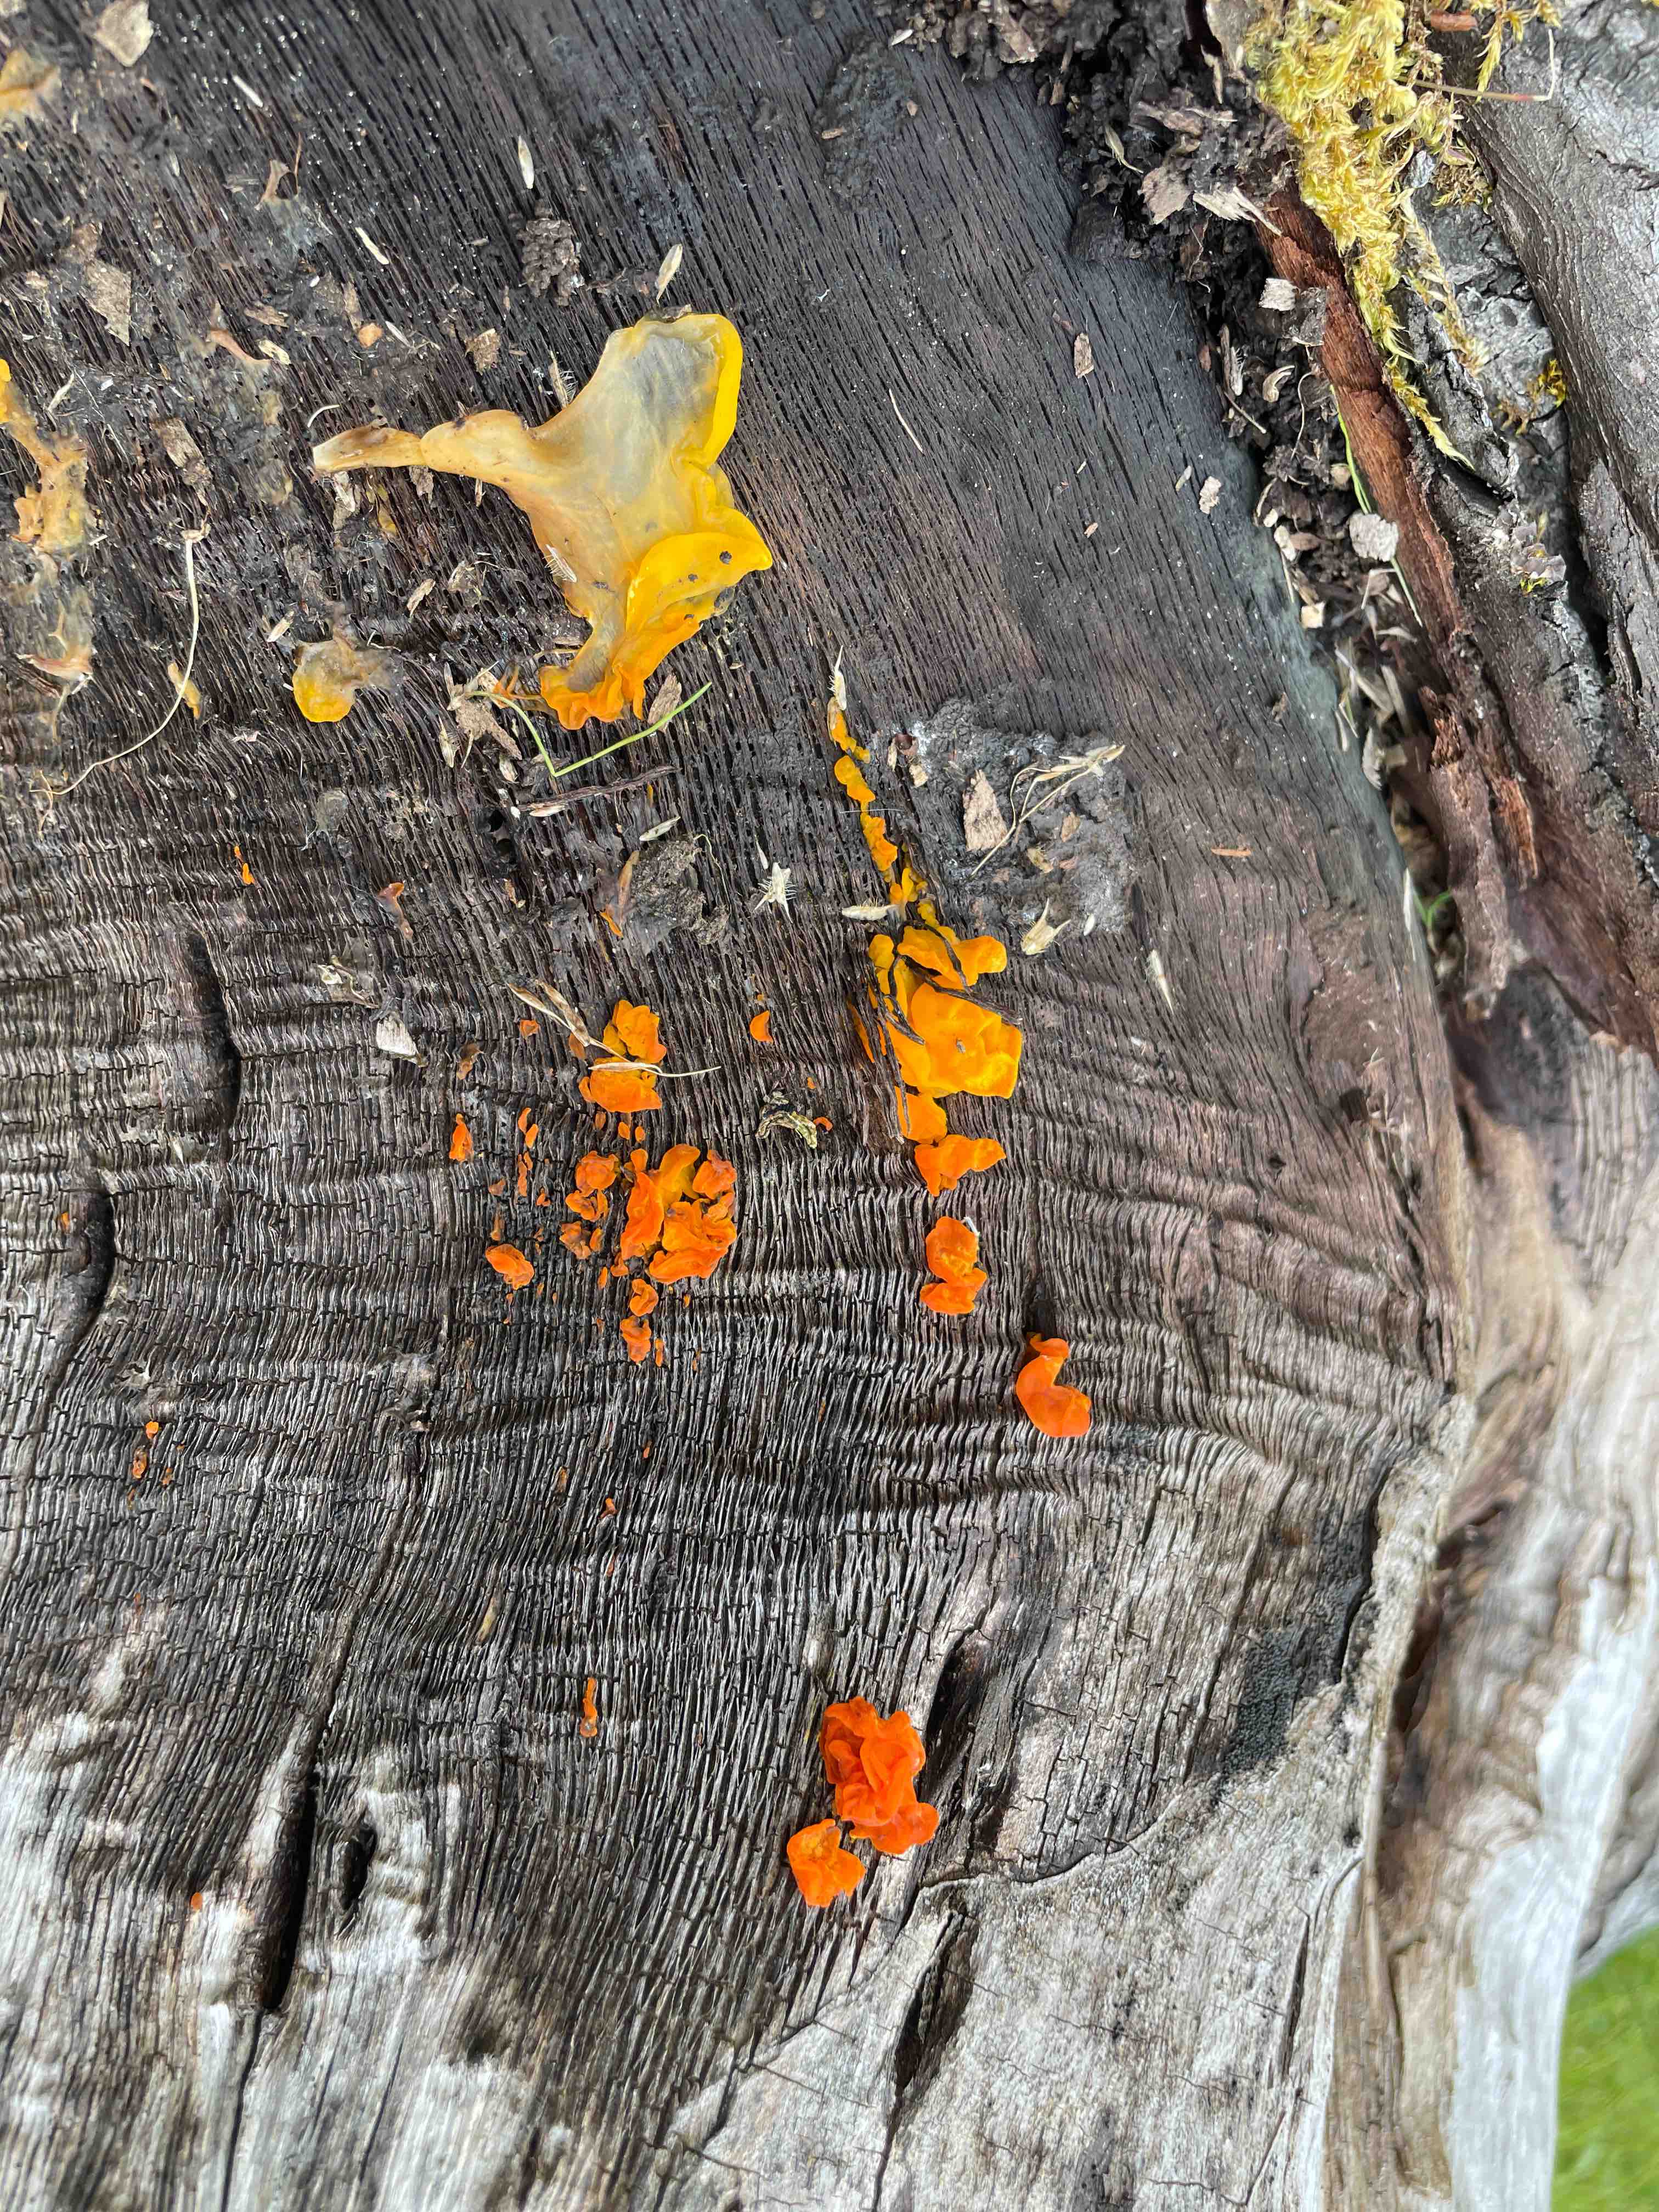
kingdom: Fungi
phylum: Basidiomycota
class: Tremellomycetes
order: Tremellales
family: Tremellaceae
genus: Tremella
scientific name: Tremella mesenterica
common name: gul bævresvamp
